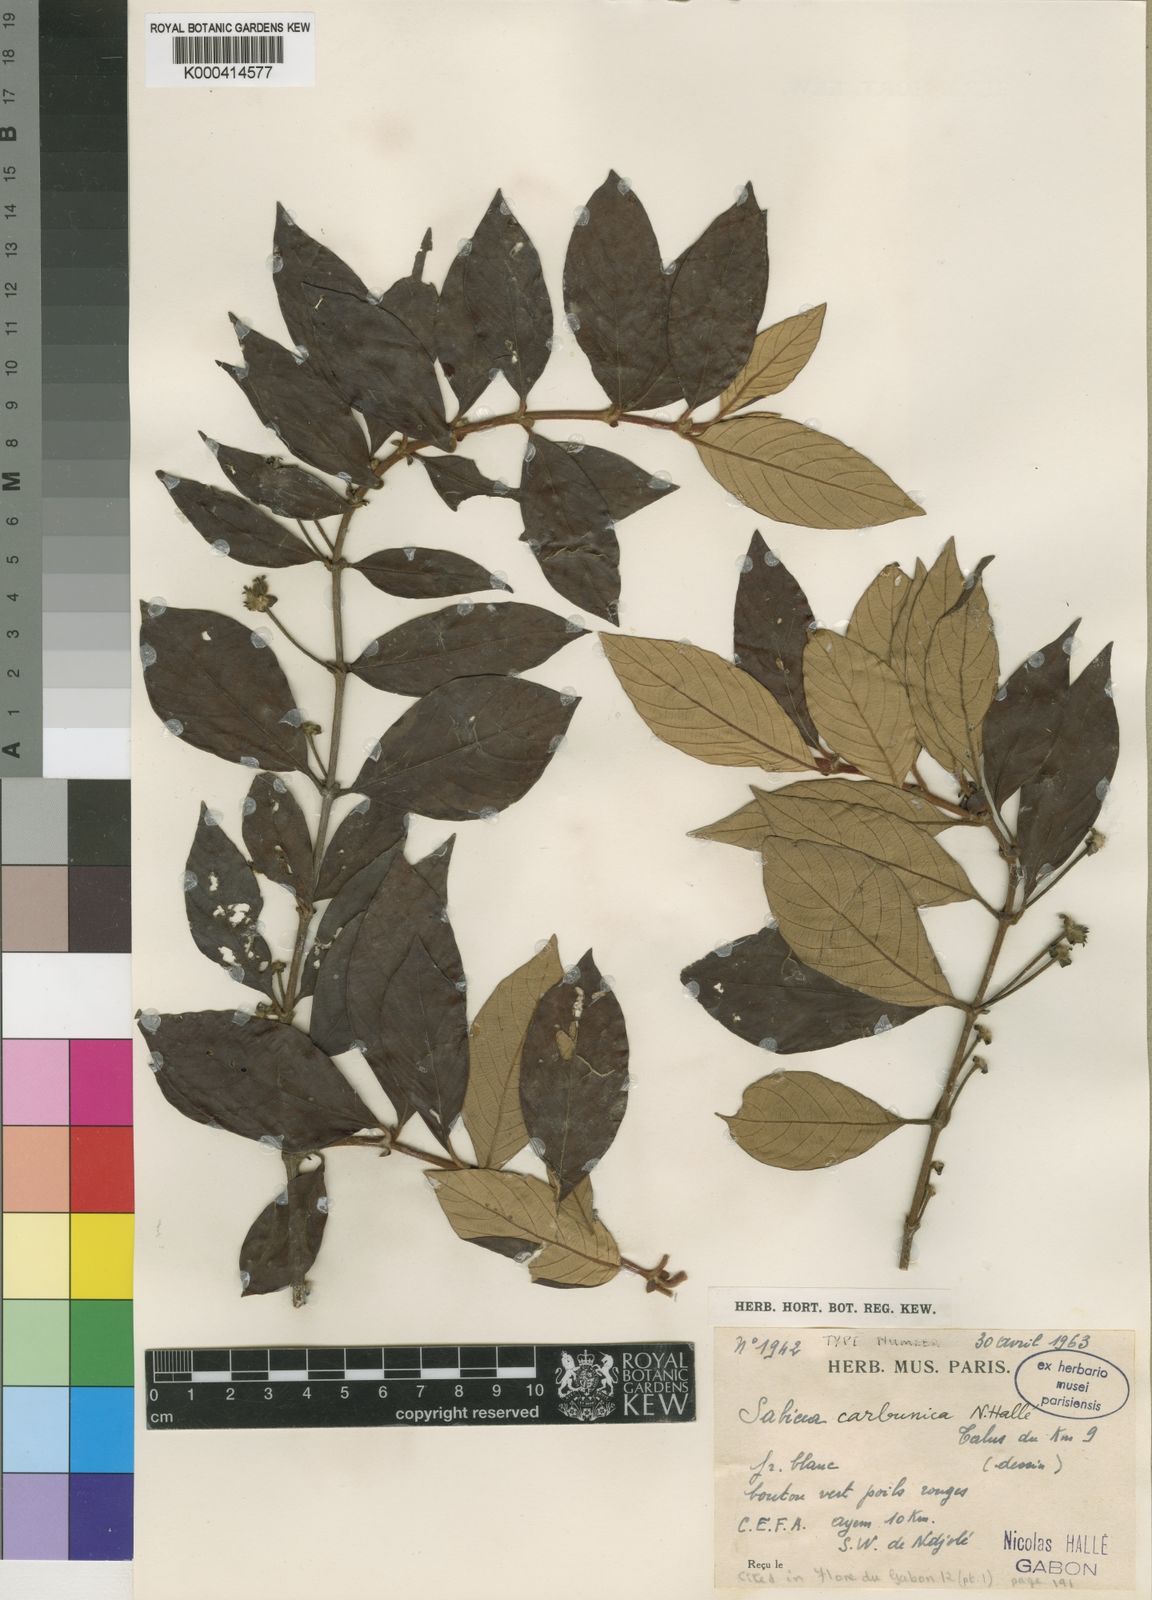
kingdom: Plantae
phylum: Tracheophyta
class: Magnoliopsida
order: Gentianales
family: Rubiaceae
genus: Sabicea
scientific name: Sabicea
